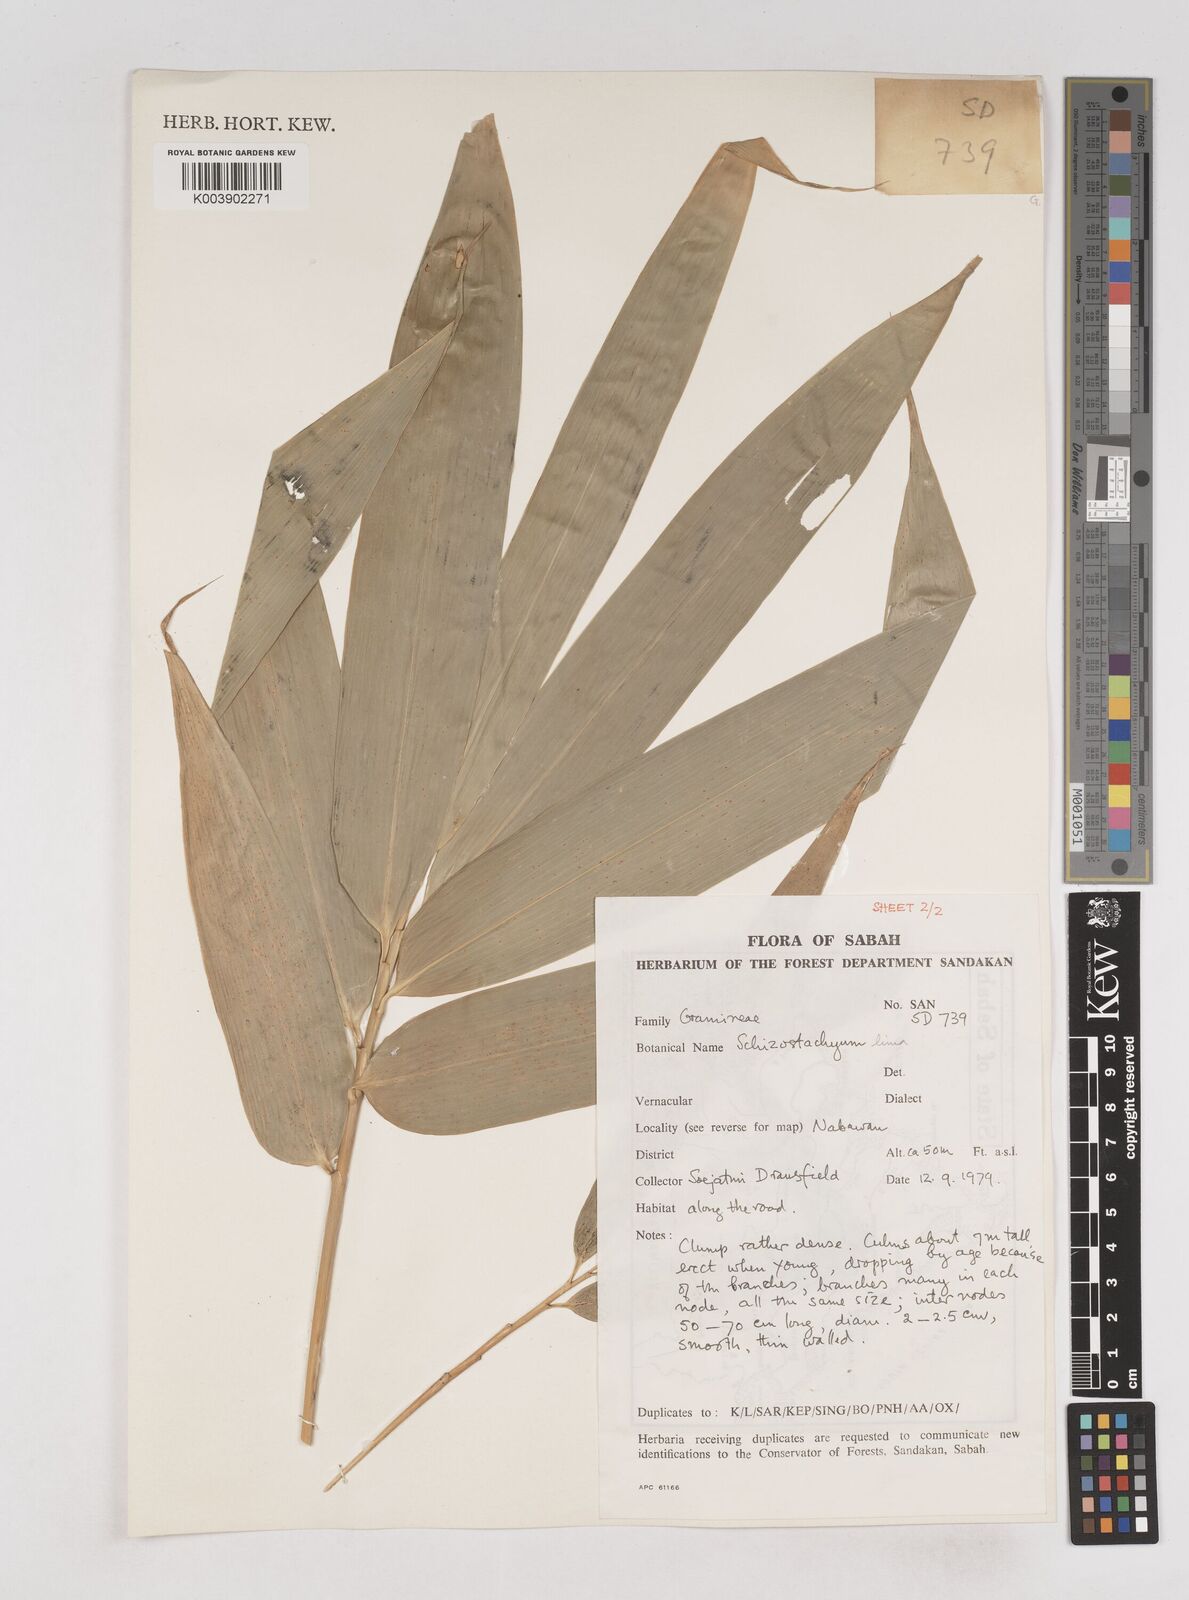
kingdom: Plantae
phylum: Tracheophyta
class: Liliopsida
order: Poales
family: Poaceae
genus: Schizostachyum
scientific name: Schizostachyum lima
